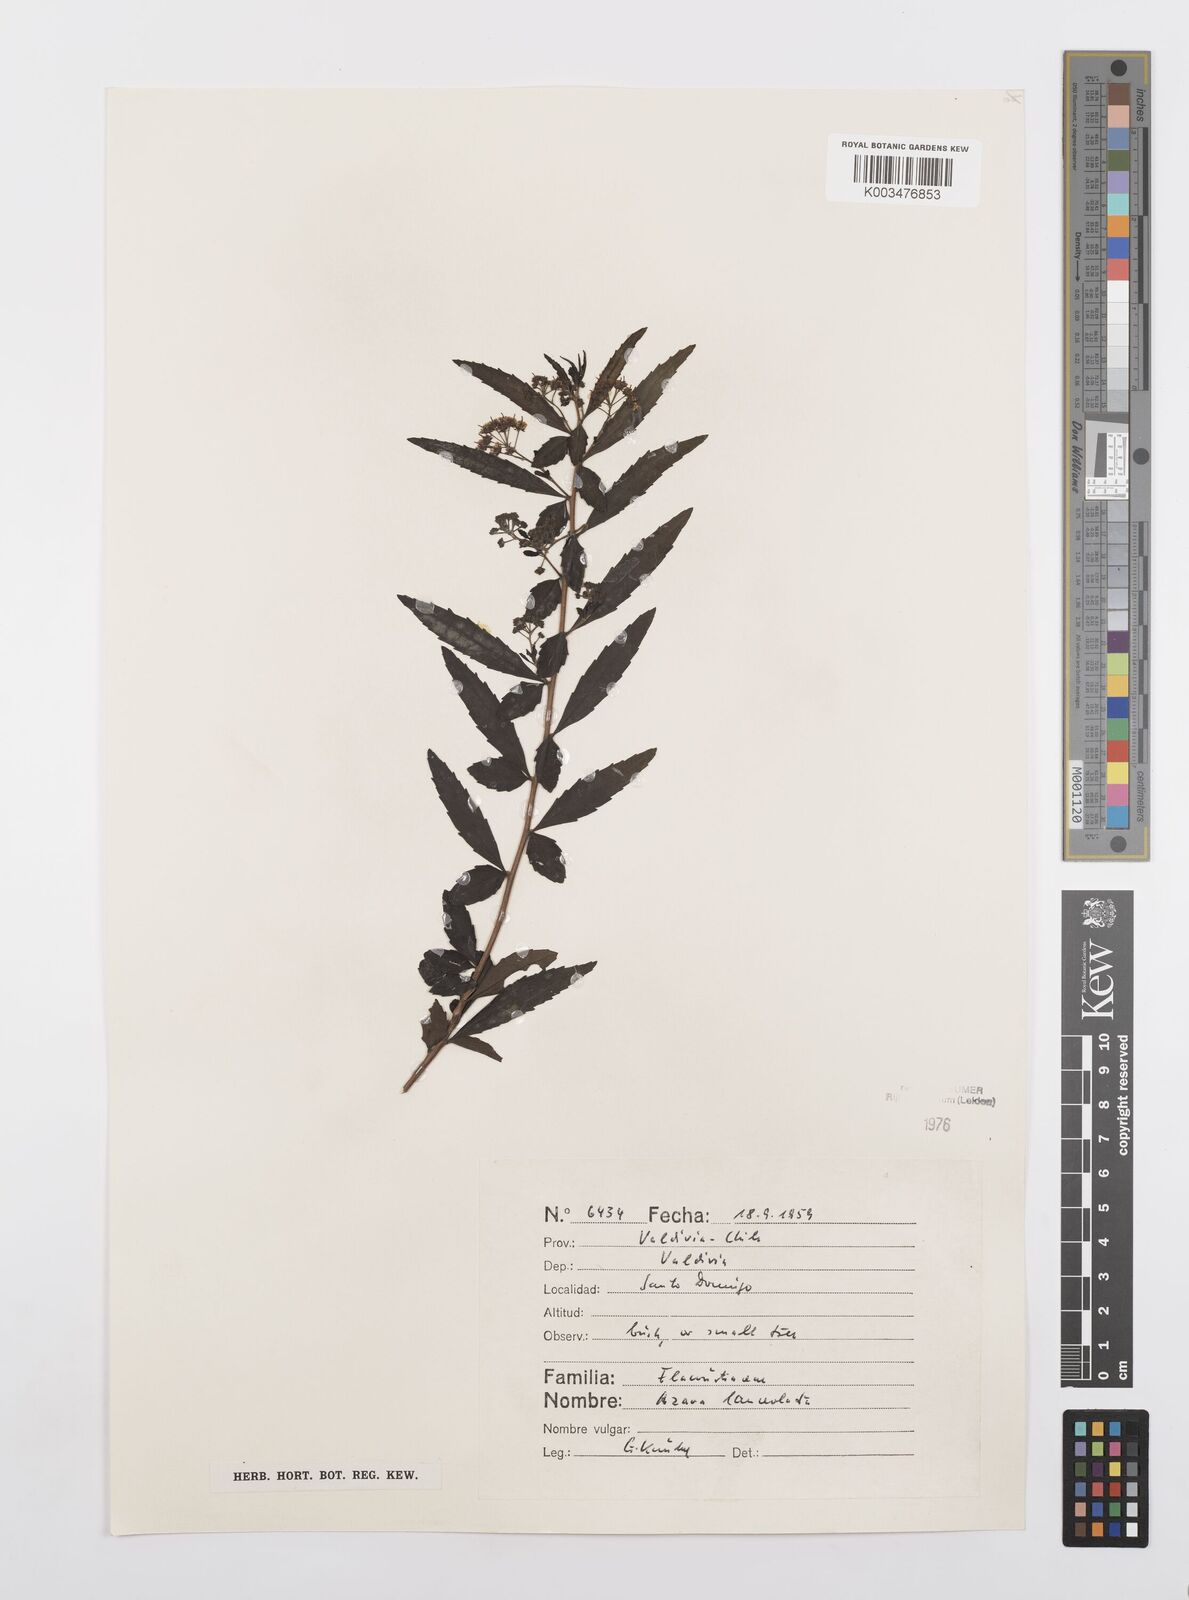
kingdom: Plantae
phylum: Tracheophyta
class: Magnoliopsida
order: Malpighiales
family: Salicaceae
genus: Azara
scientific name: Azara lanceolata
